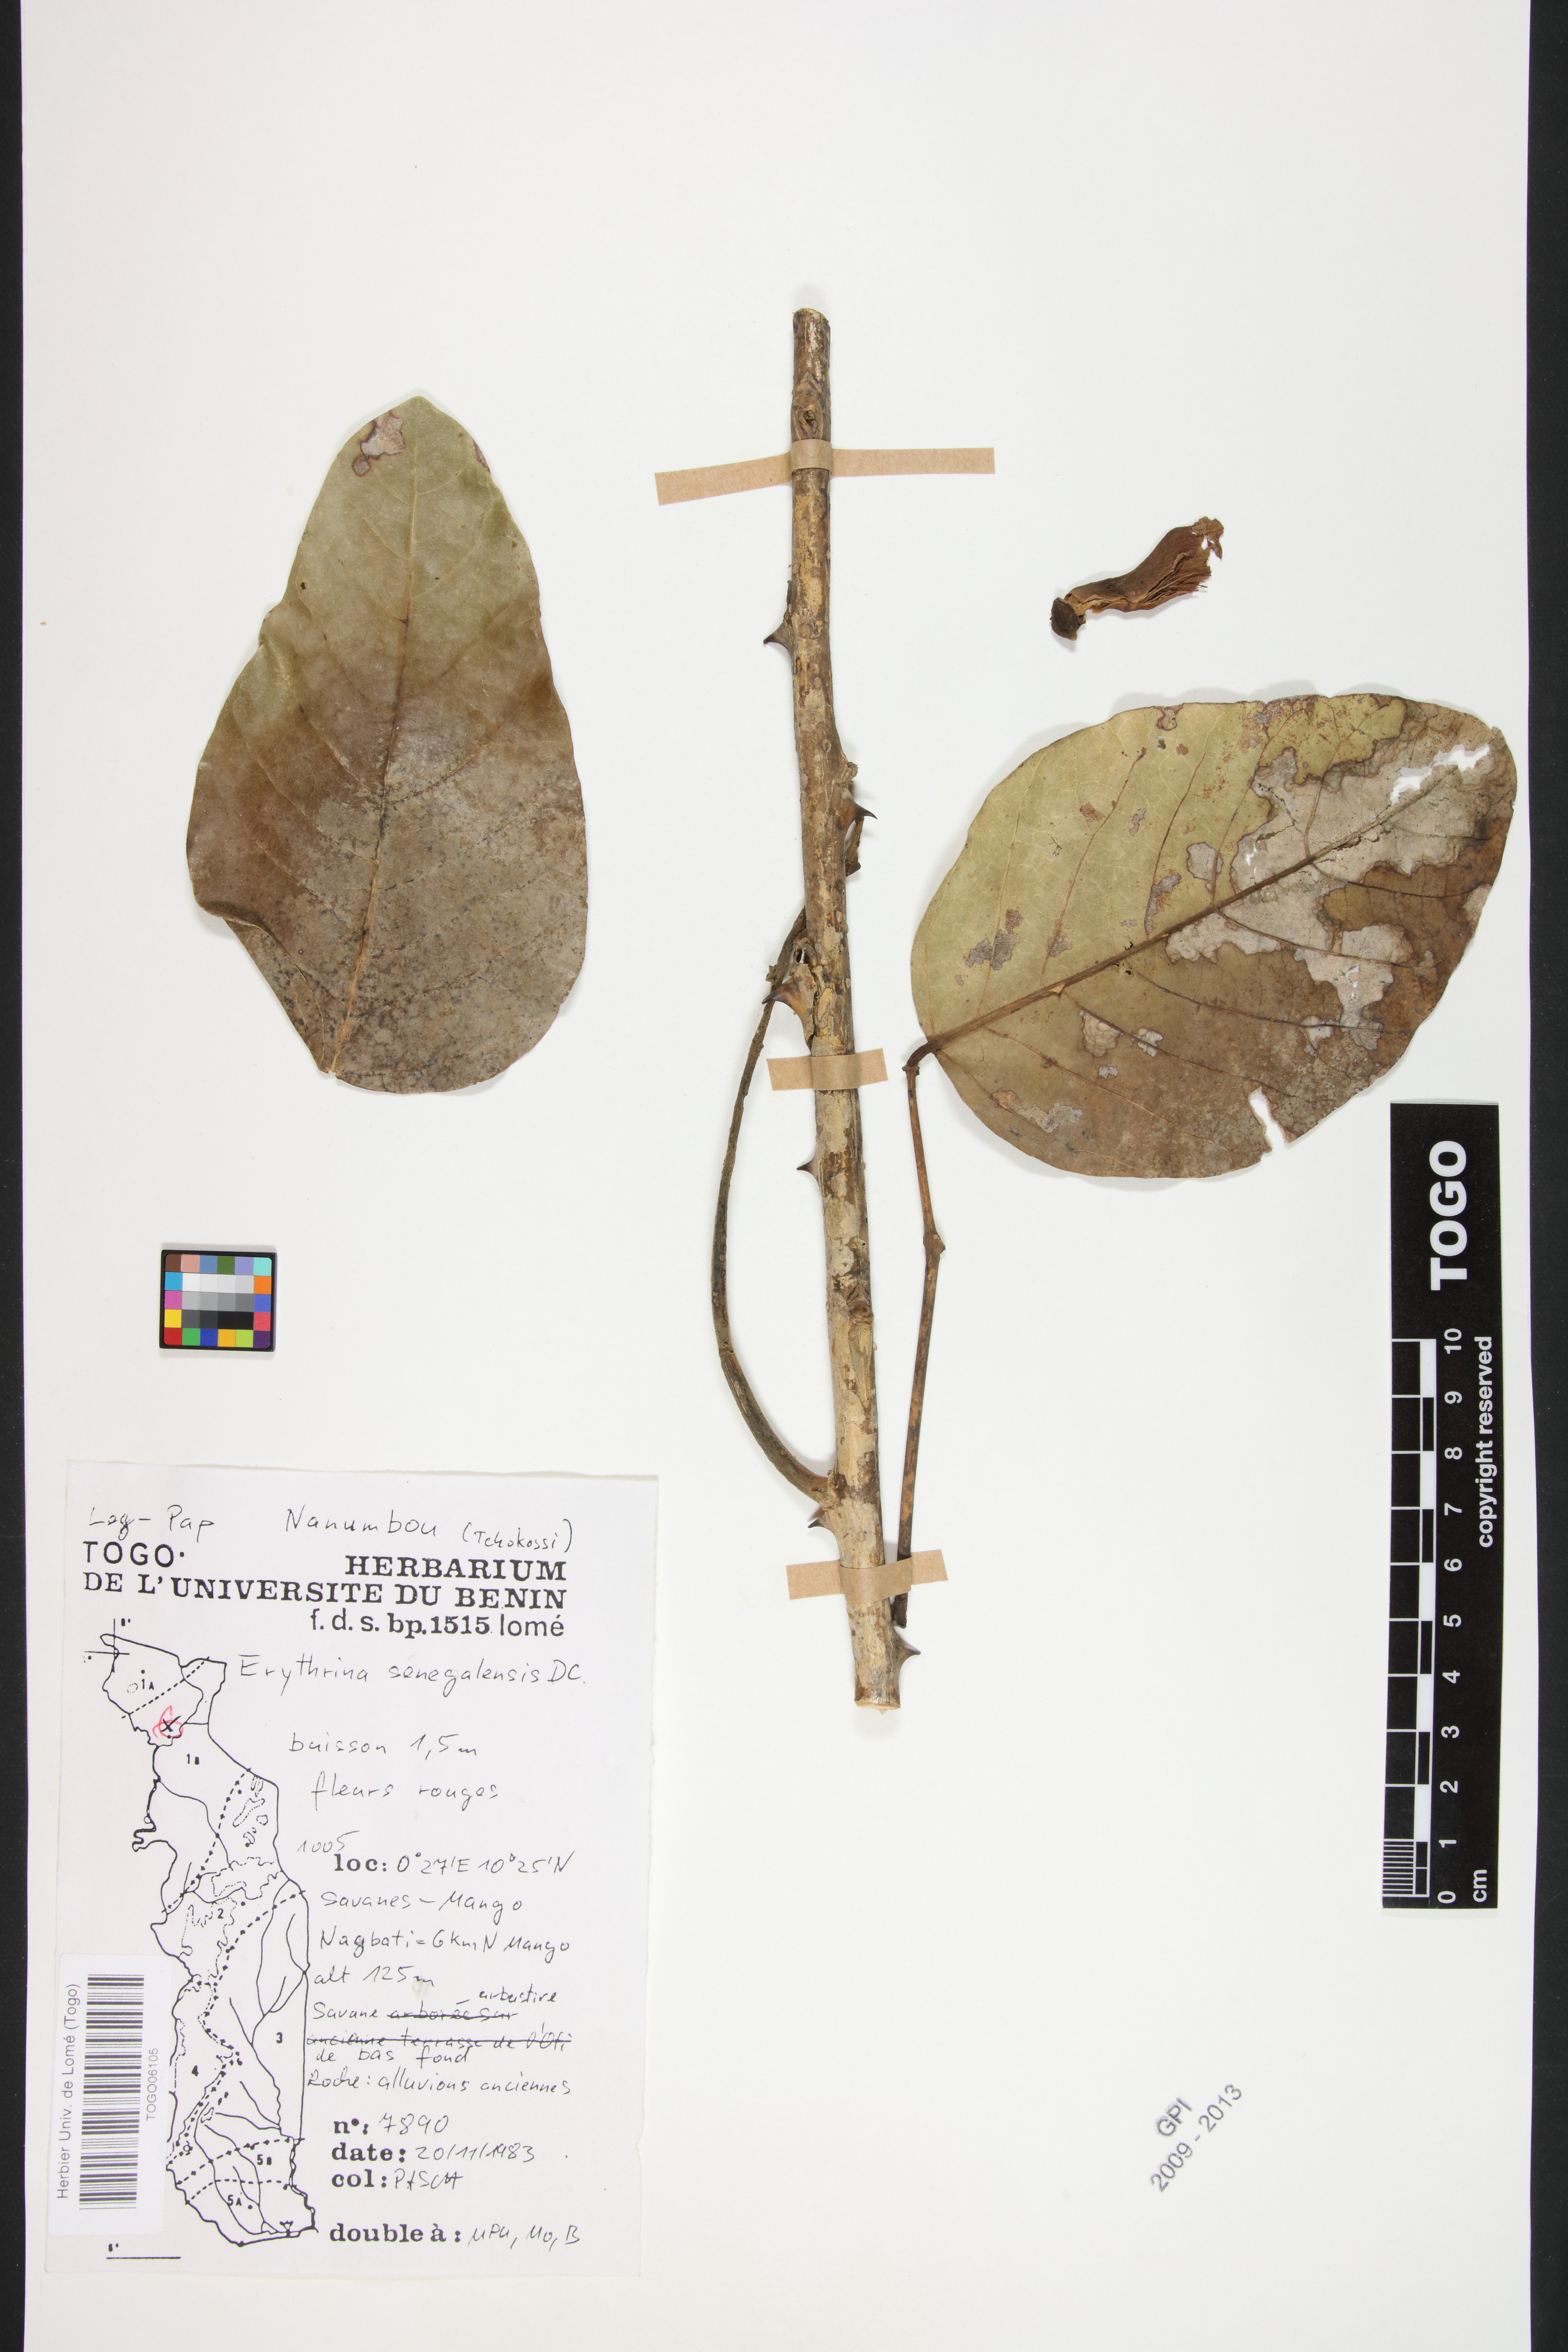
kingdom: Plantae
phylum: Tracheophyta
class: Magnoliopsida
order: Fabales
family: Fabaceae
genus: Erythrina
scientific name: Erythrina senegalensis
